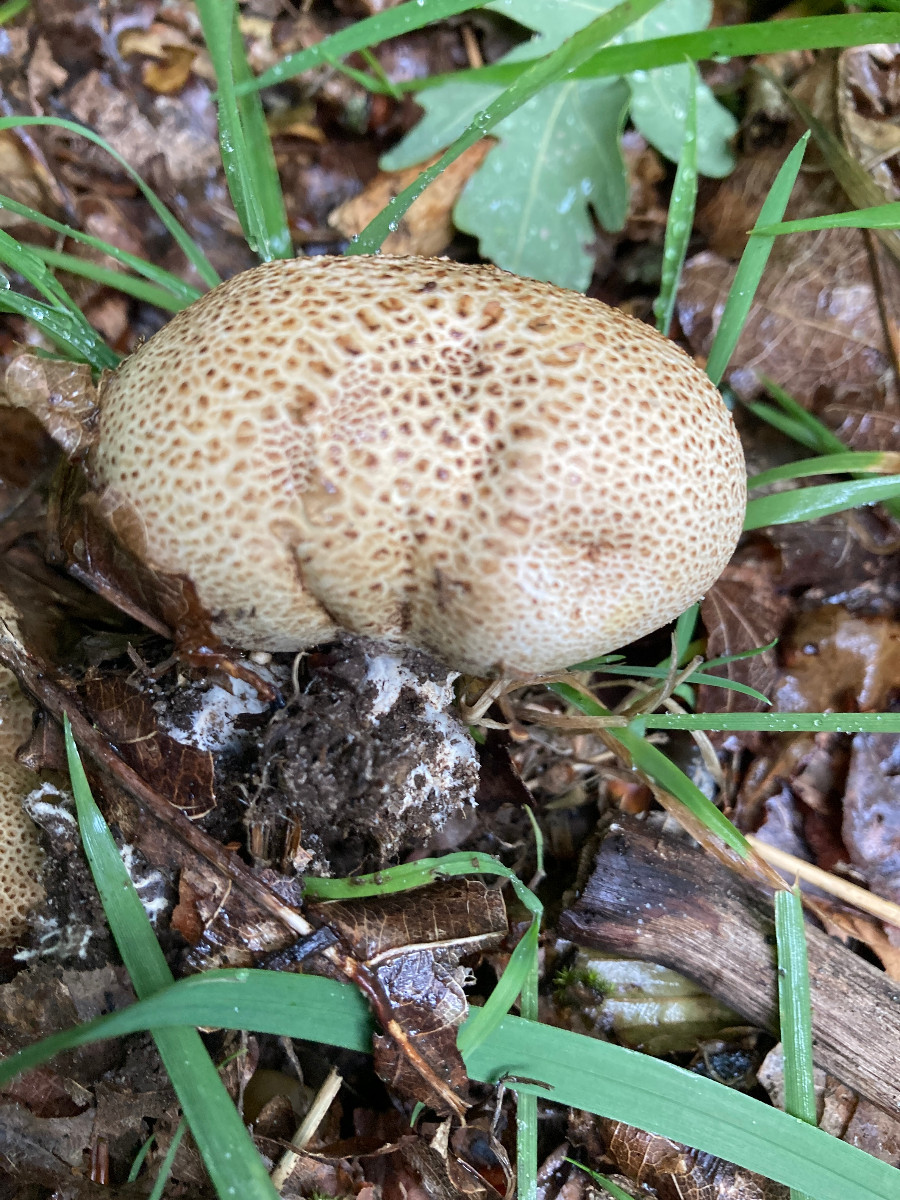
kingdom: Fungi
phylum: Basidiomycota
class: Agaricomycetes
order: Boletales
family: Sclerodermataceae
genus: Scleroderma
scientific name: Scleroderma citrinum
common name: almindelig bruskbold
